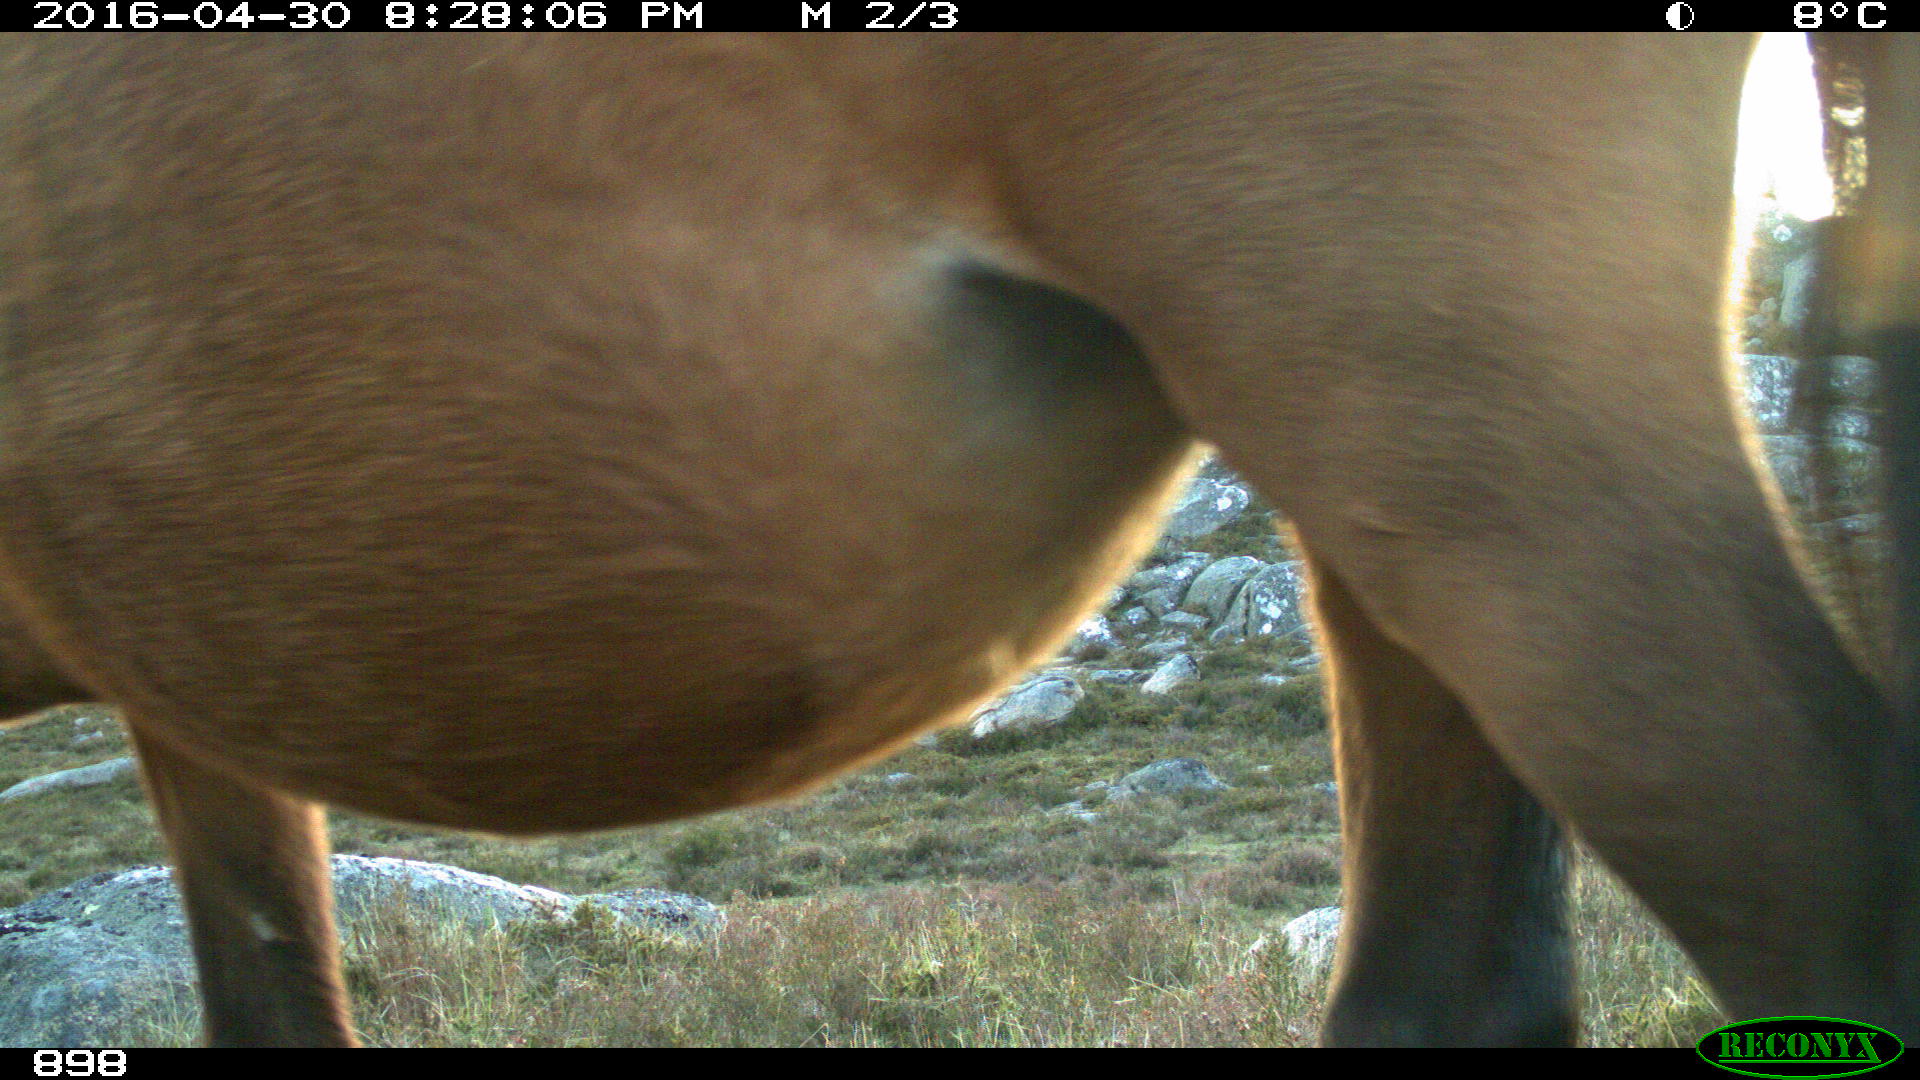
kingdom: Animalia
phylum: Chordata
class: Mammalia
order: Perissodactyla
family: Equidae
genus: Equus
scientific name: Equus caballus
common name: Horse
